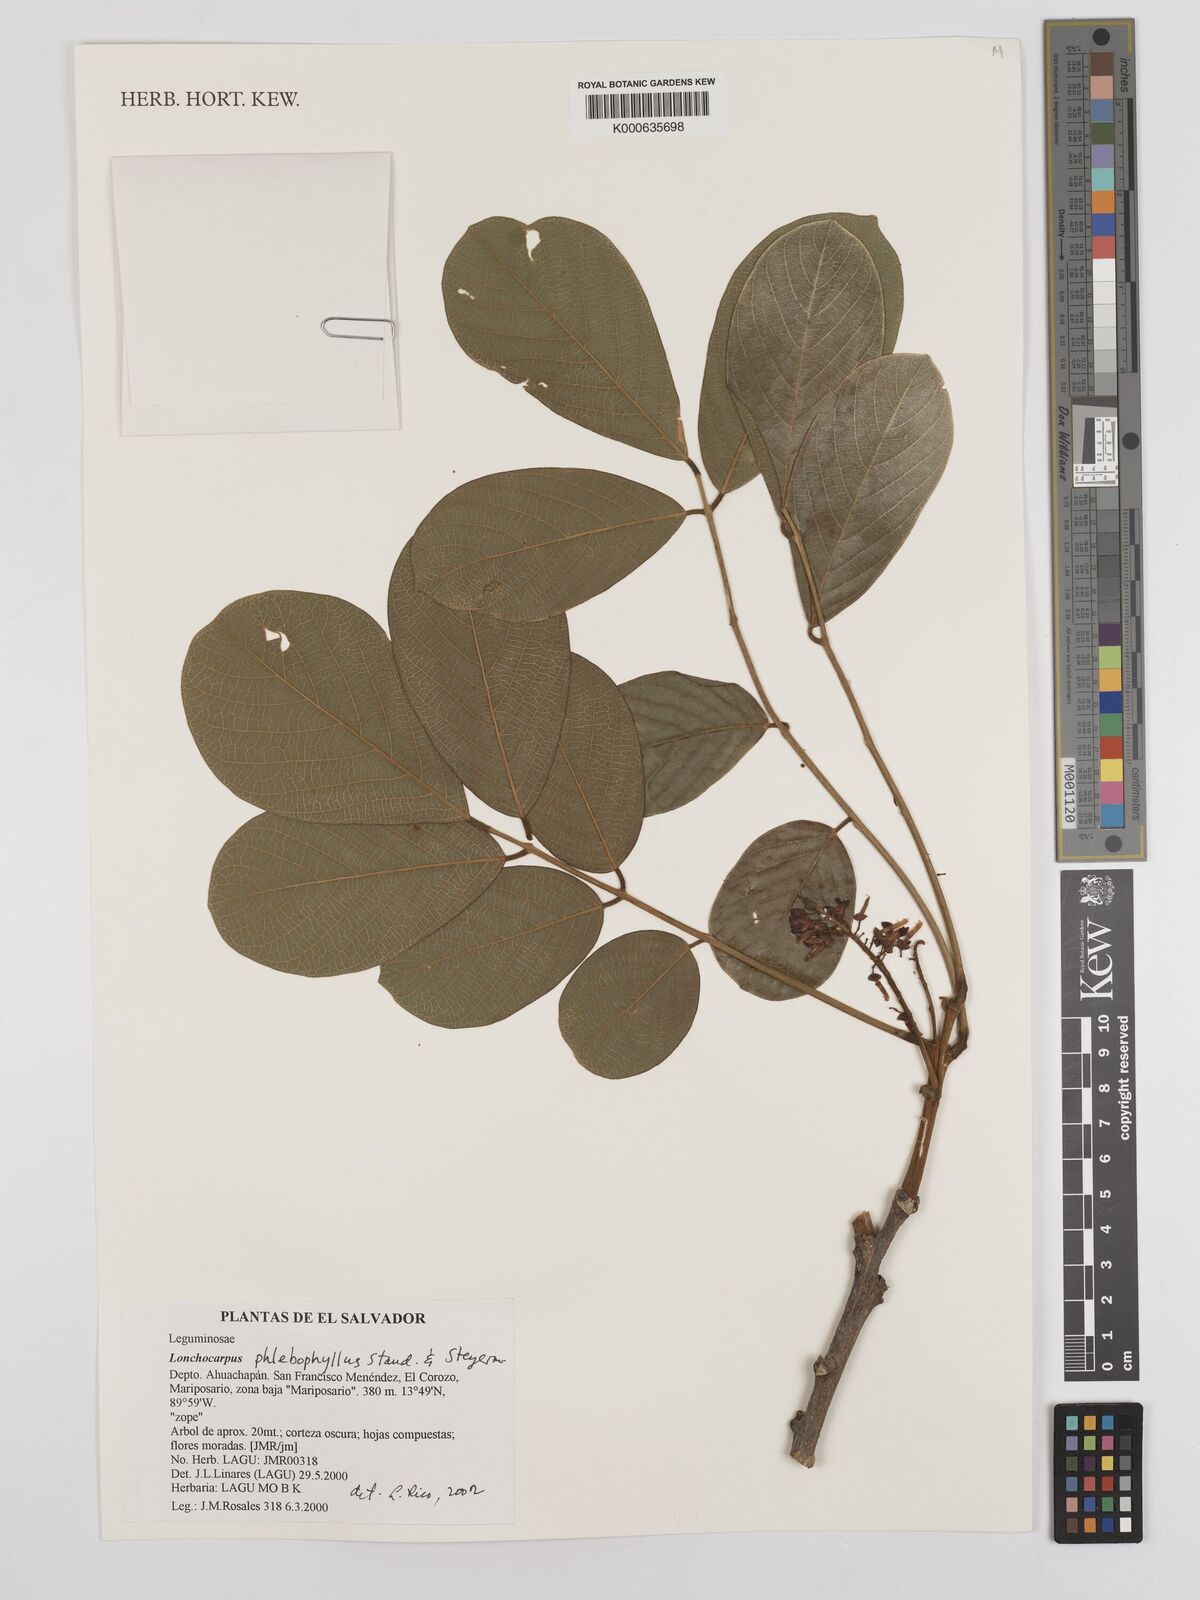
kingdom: Plantae
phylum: Tracheophyta
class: Magnoliopsida
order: Fabales
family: Fabaceae
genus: Lonchocarpus
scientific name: Lonchocarpus phlebophyllus
